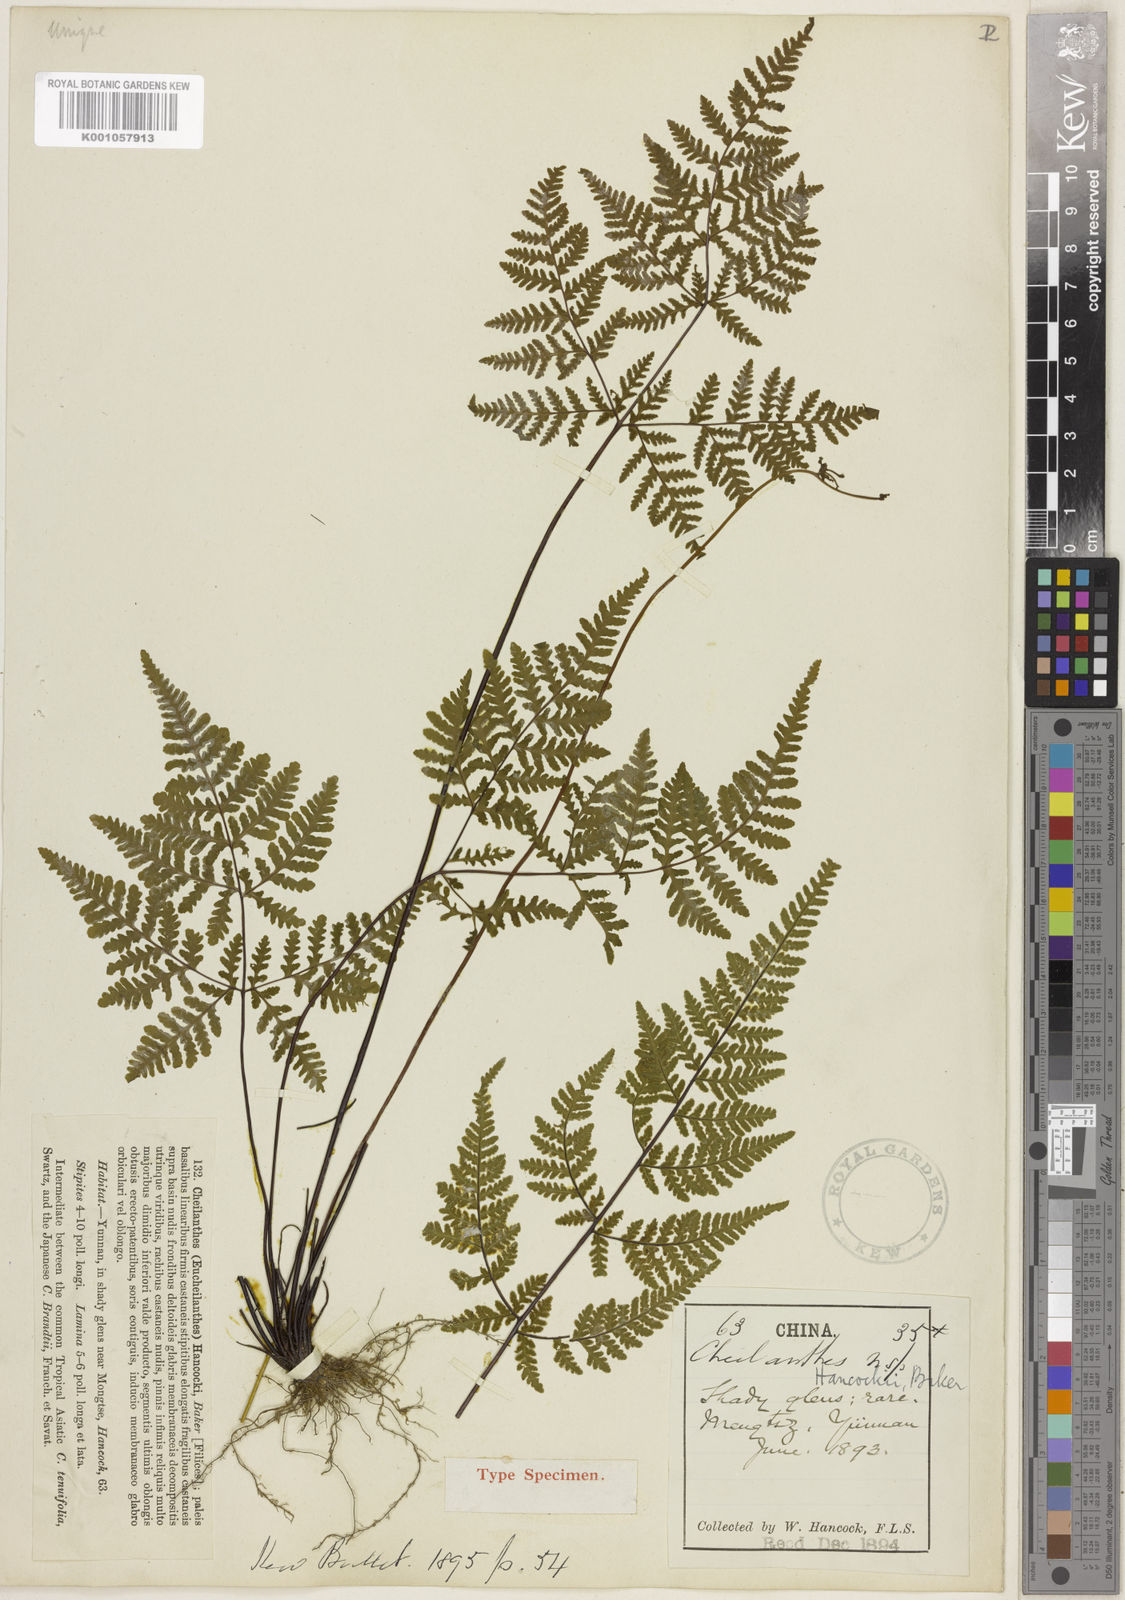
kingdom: Plantae
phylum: Tracheophyta
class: Polypodiopsida
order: Polypodiales
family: Pteridaceae
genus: Oeosporangium
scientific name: Oeosporangium hancockii
